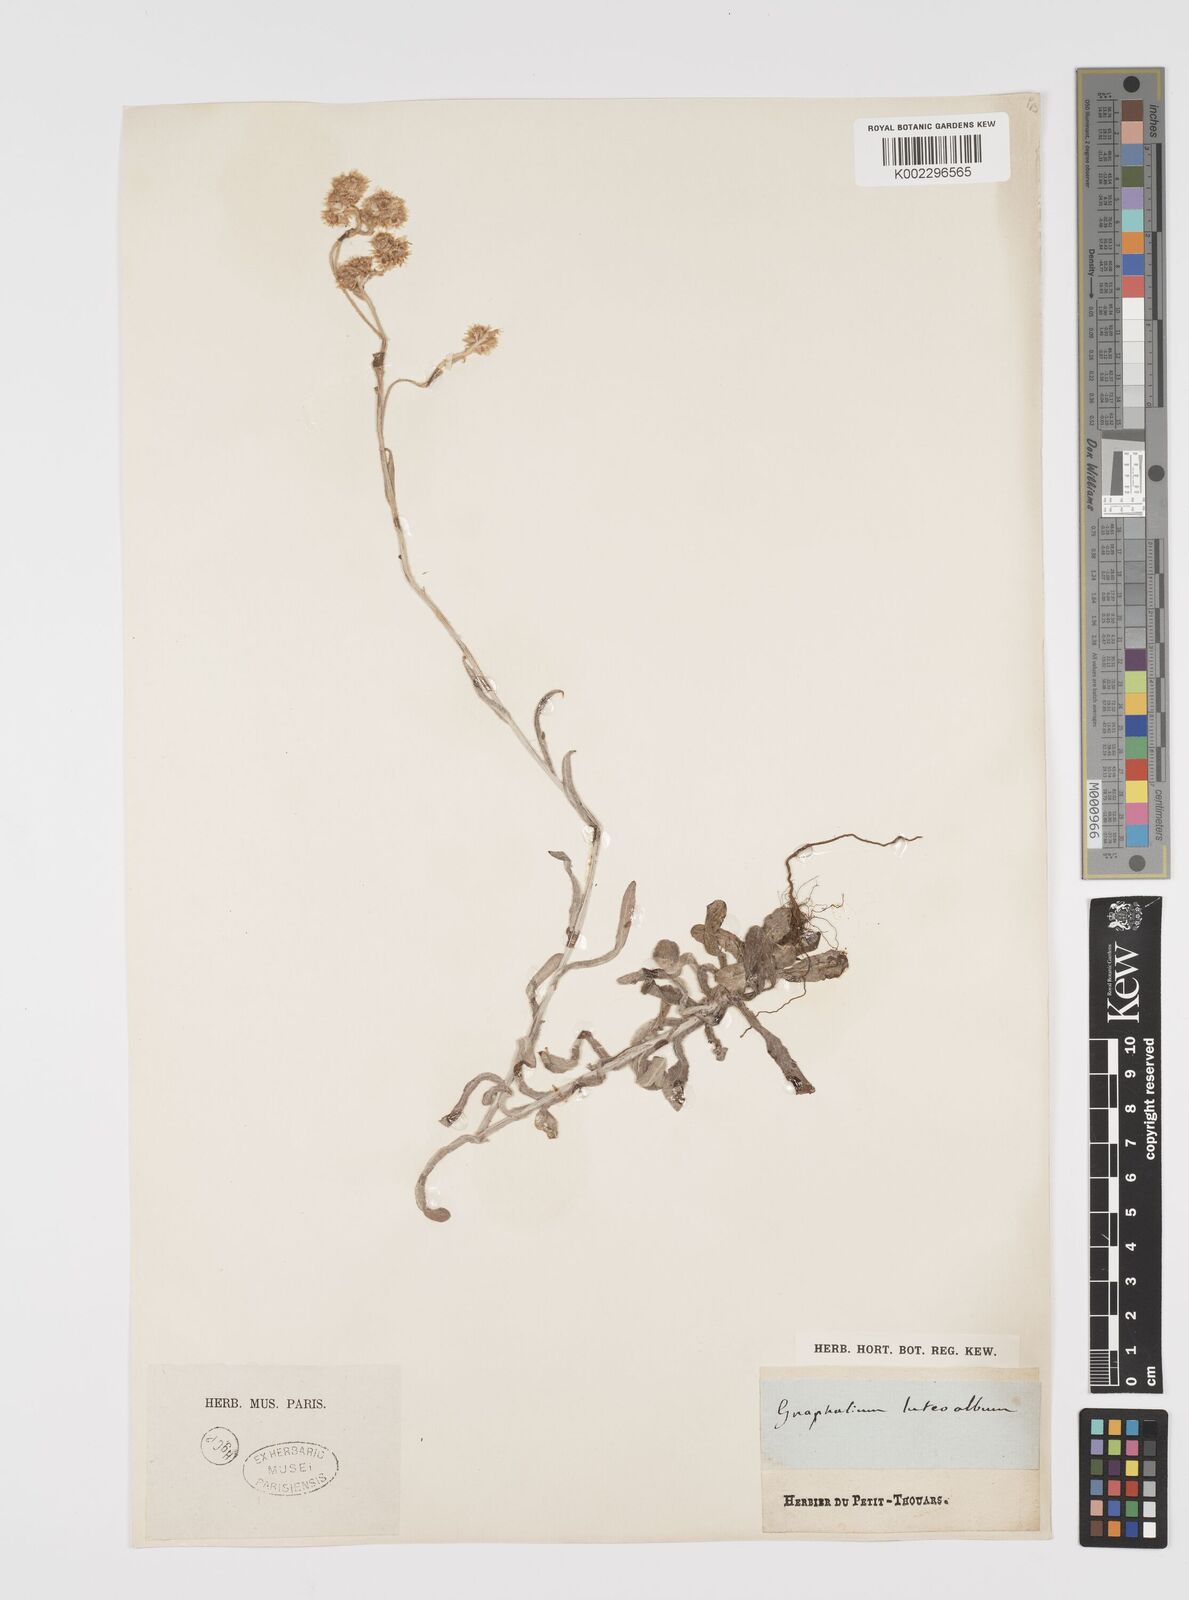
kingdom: Plantae
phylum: Tracheophyta
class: Magnoliopsida
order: Asterales
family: Asteraceae
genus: Helichrysum
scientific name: Helichrysum luteoalbum
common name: Daisy
